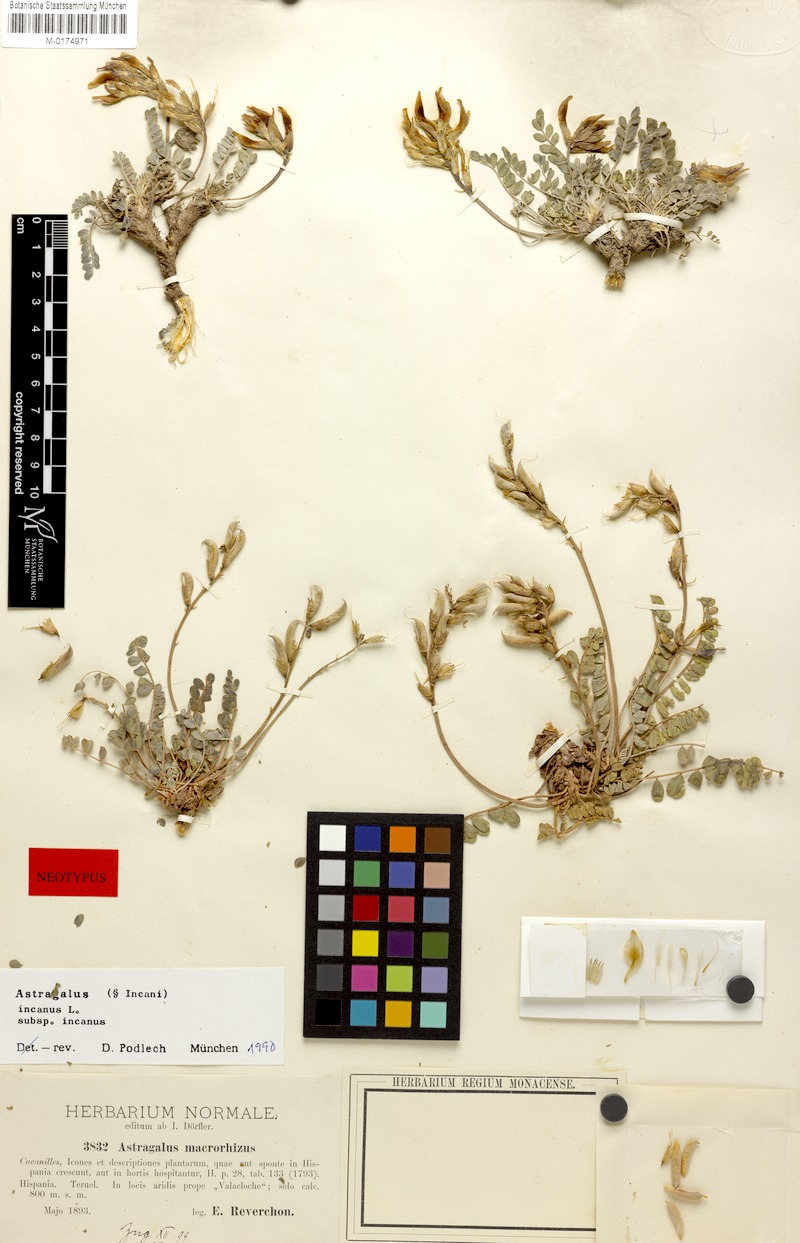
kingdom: Plantae
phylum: Tracheophyta
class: Magnoliopsida
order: Fabales
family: Fabaceae
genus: Astragalus
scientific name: Astragalus incanus
